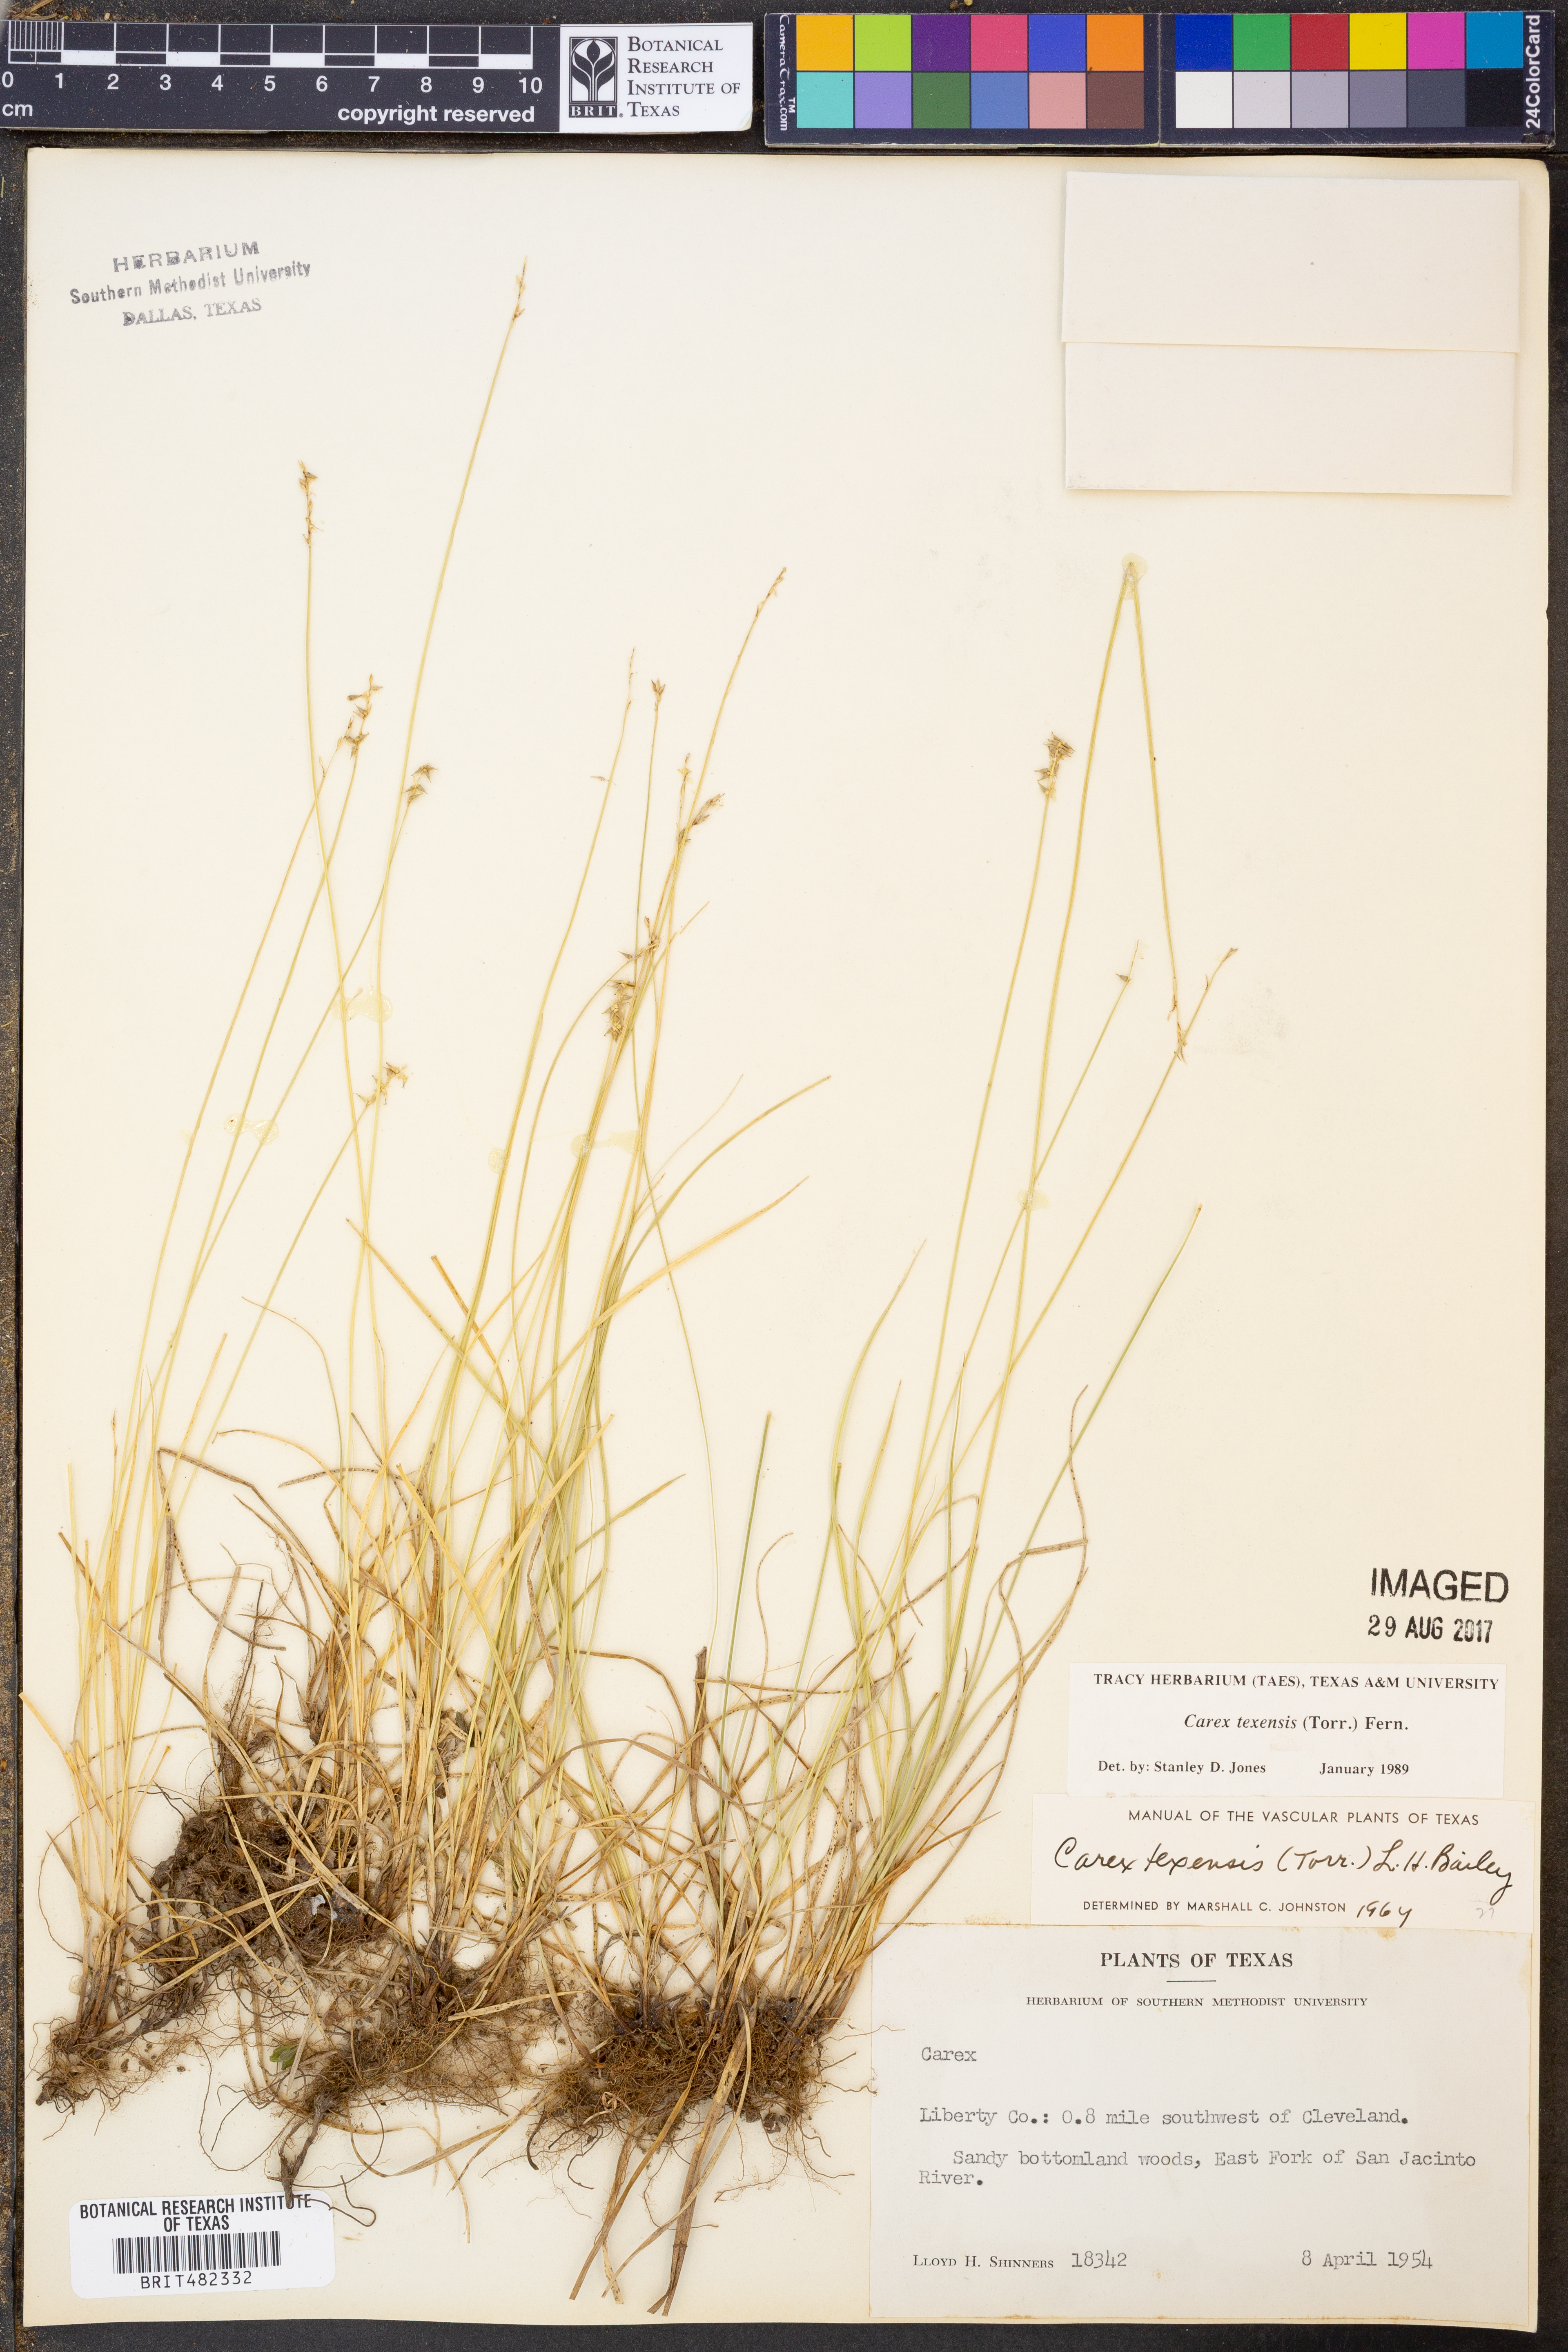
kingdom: Plantae
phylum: Tracheophyta
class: Liliopsida
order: Poales
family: Cyperaceae
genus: Carex
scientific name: Carex texensis
